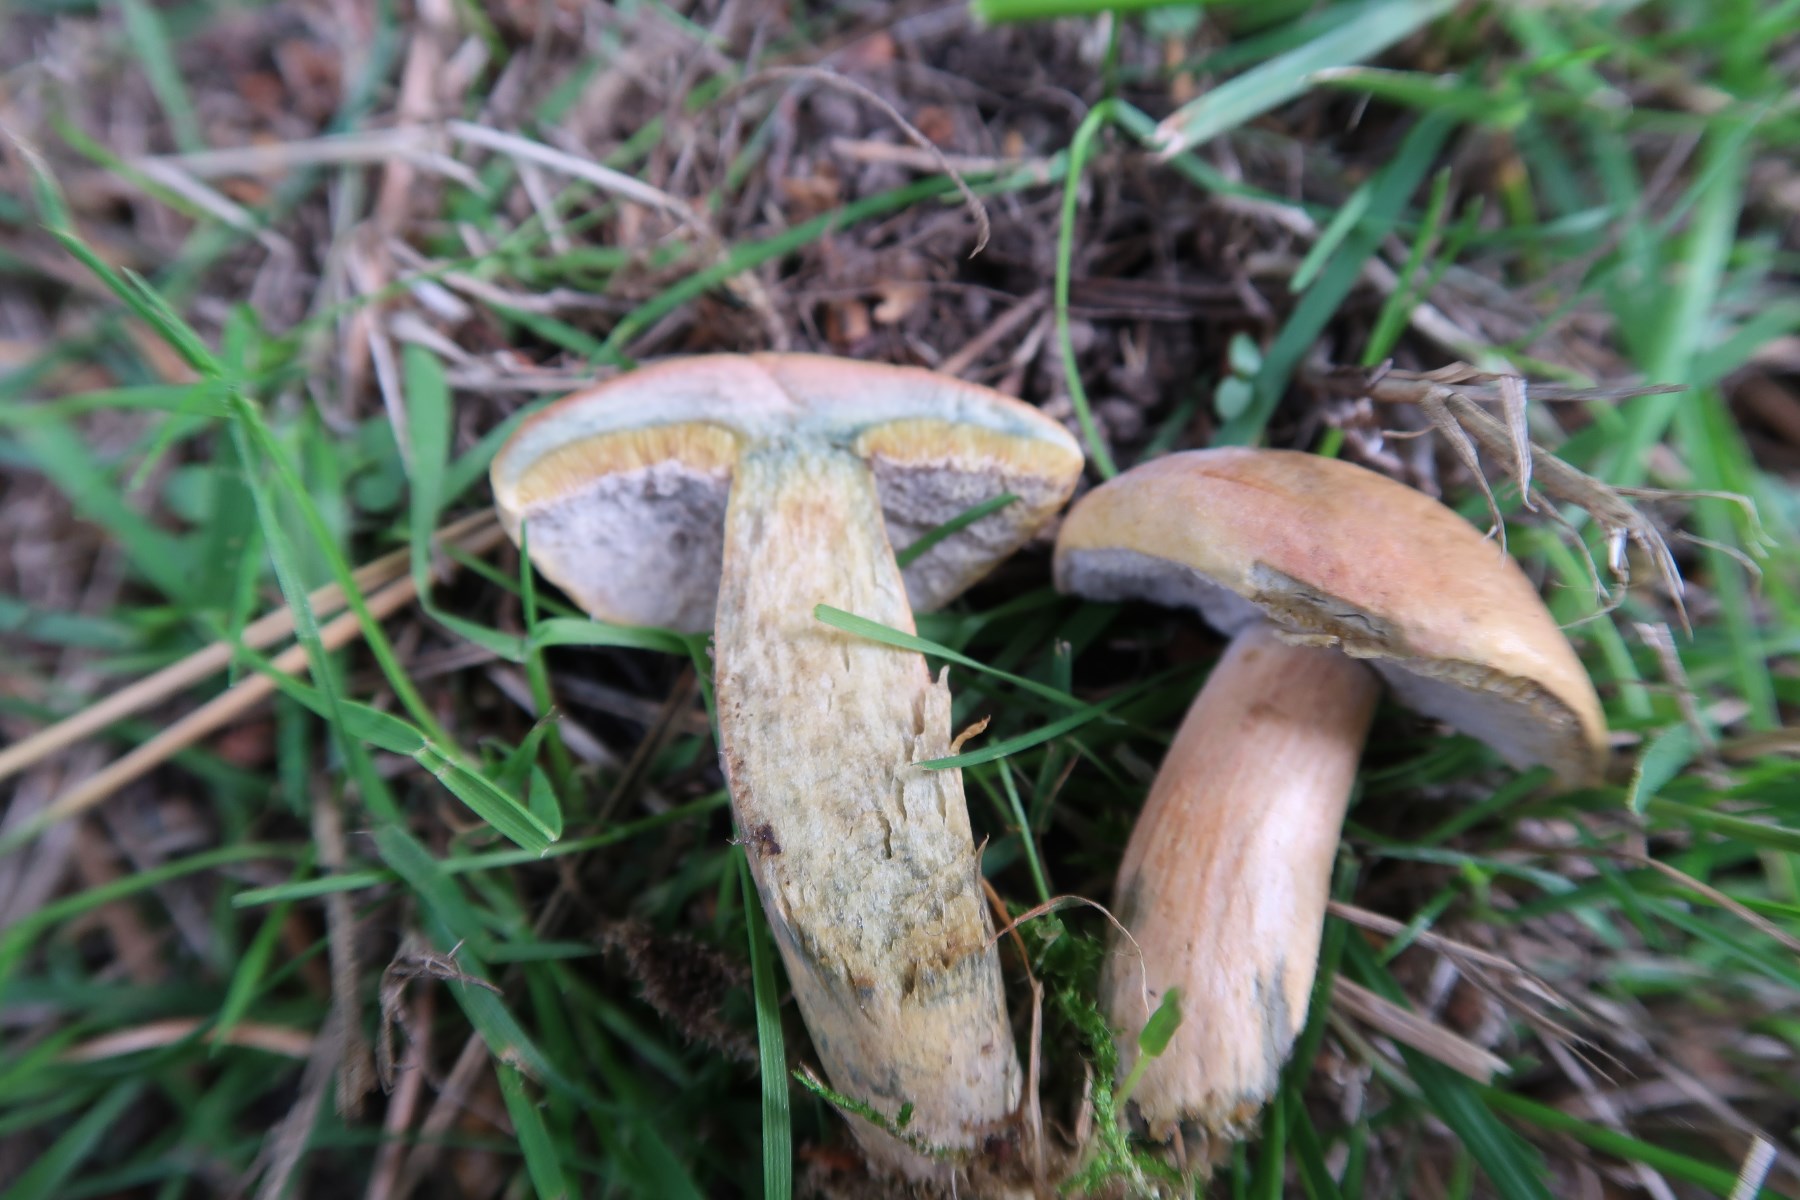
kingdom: Fungi
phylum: Basidiomycota
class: Agaricomycetes
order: Boletales
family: Boletaceae
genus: Hortiboletus
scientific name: Hortiboletus bubalinus
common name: aurora-rørhat
